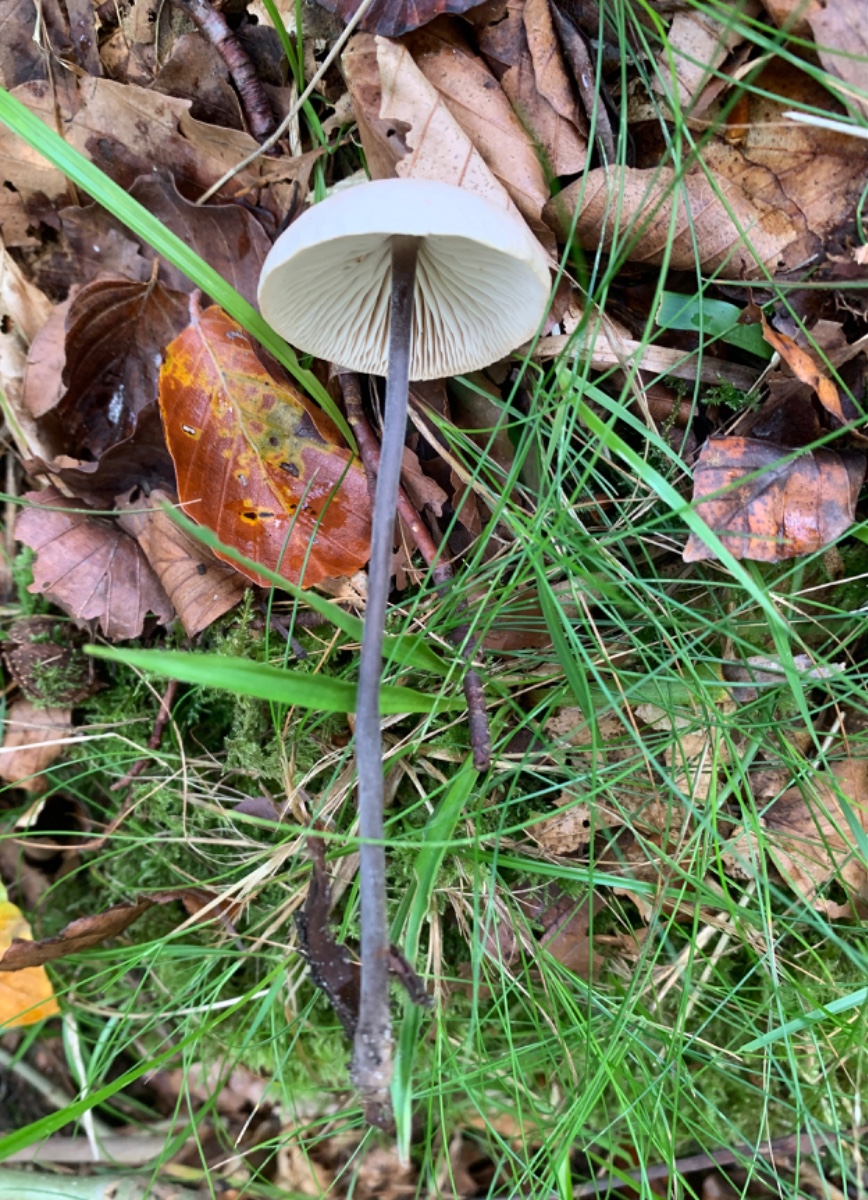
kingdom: Fungi
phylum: Basidiomycota
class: Agaricomycetes
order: Agaricales
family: Omphalotaceae
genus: Mycetinis
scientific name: Mycetinis alliaceus
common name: stor løghat
